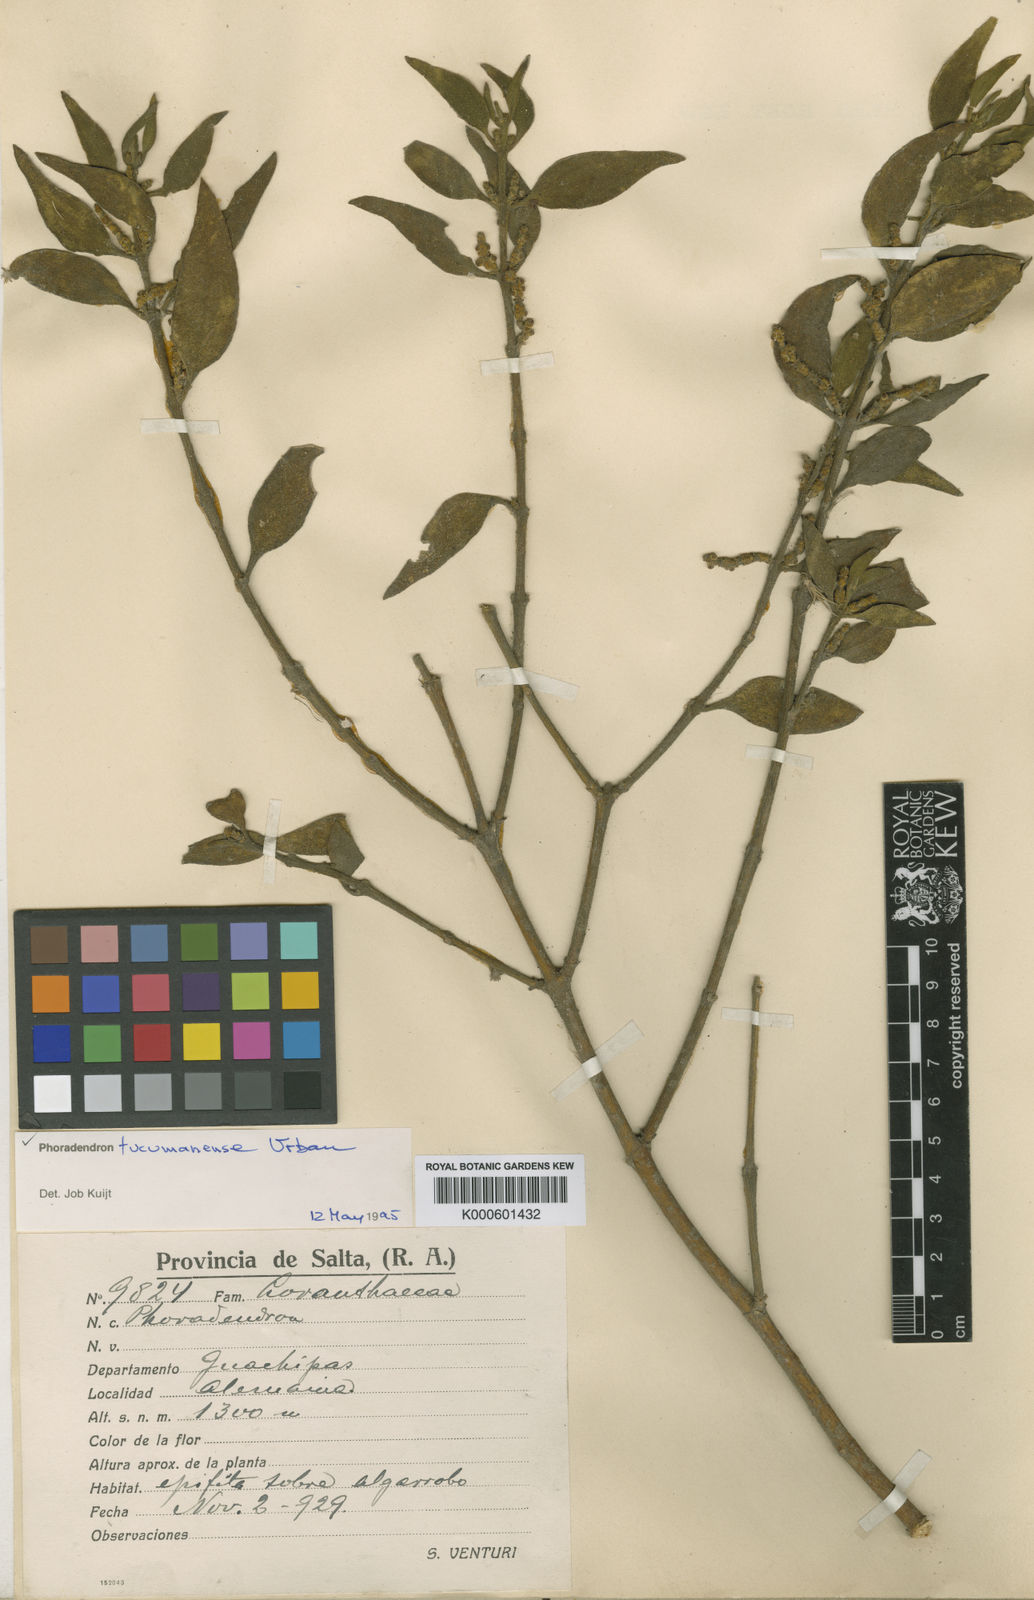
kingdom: Plantae
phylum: Tracheophyta
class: Magnoliopsida
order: Santalales
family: Viscaceae
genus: Phoradendron
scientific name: Phoradendron tucumanense
